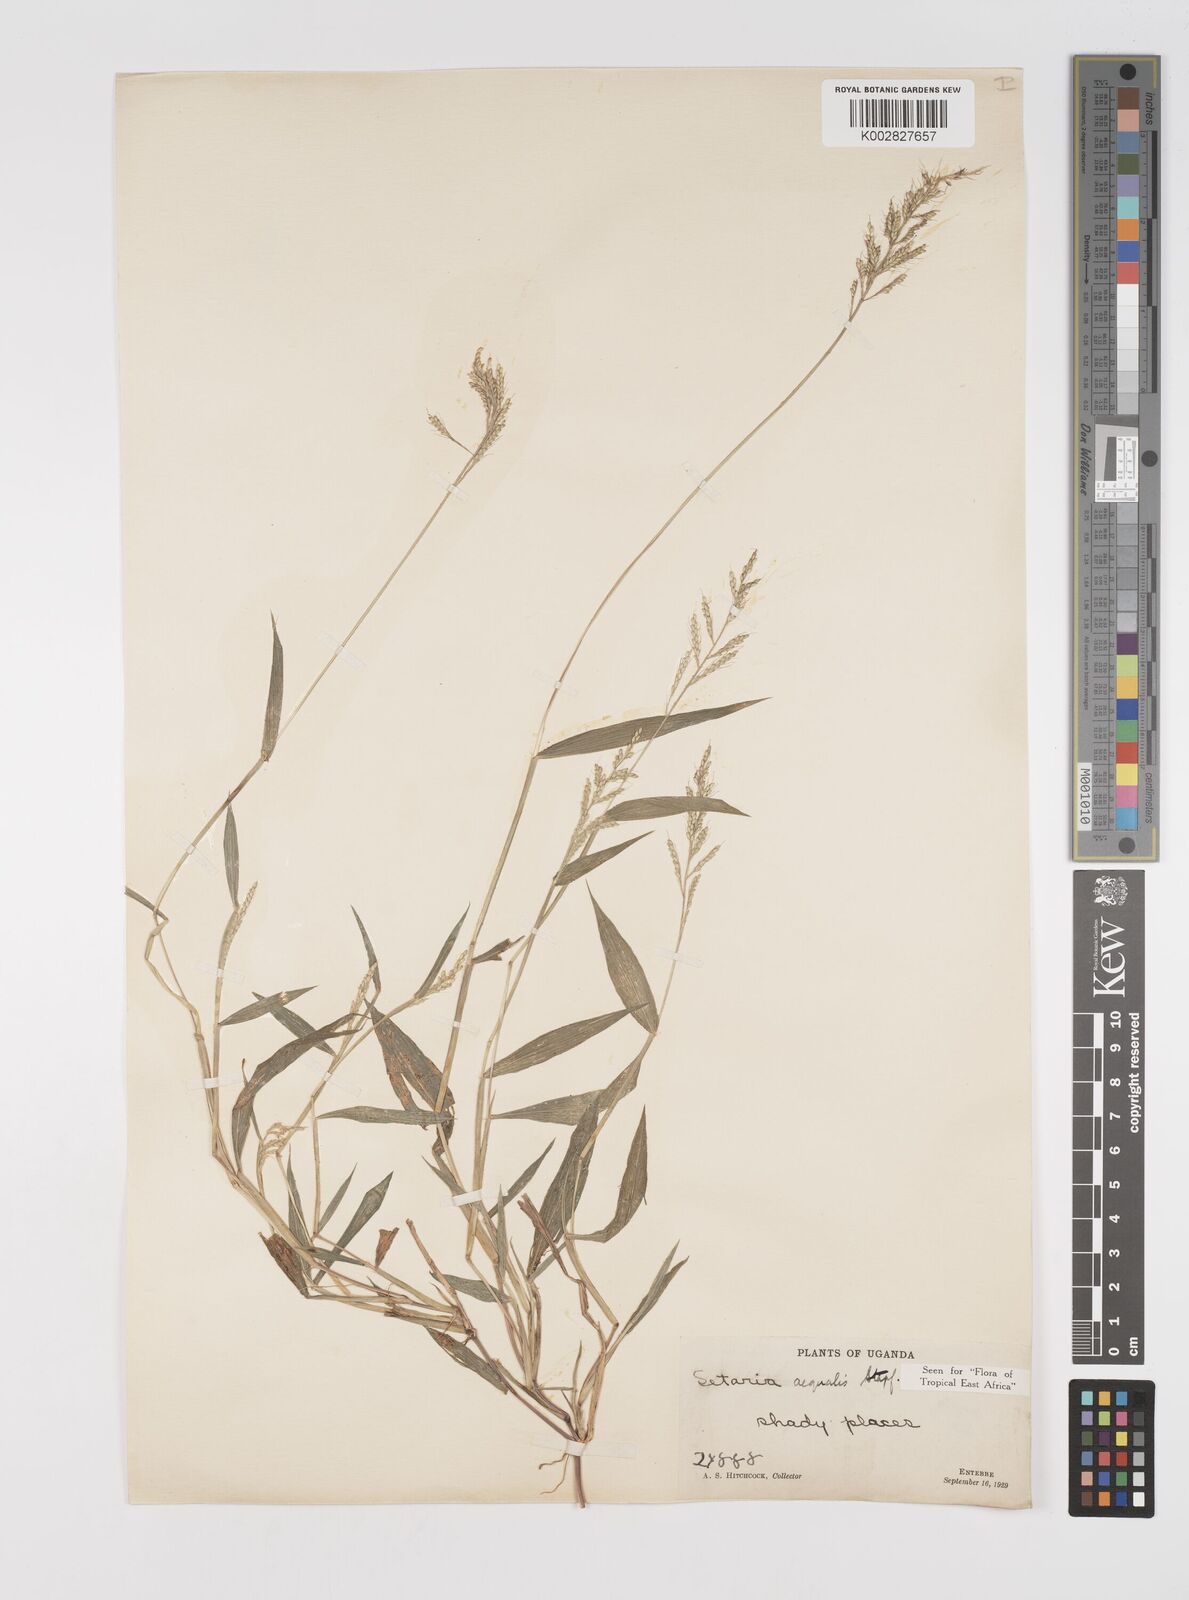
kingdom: Plantae
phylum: Tracheophyta
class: Liliopsida
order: Poales
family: Poaceae
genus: Setaria
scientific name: Setaria homonyma
